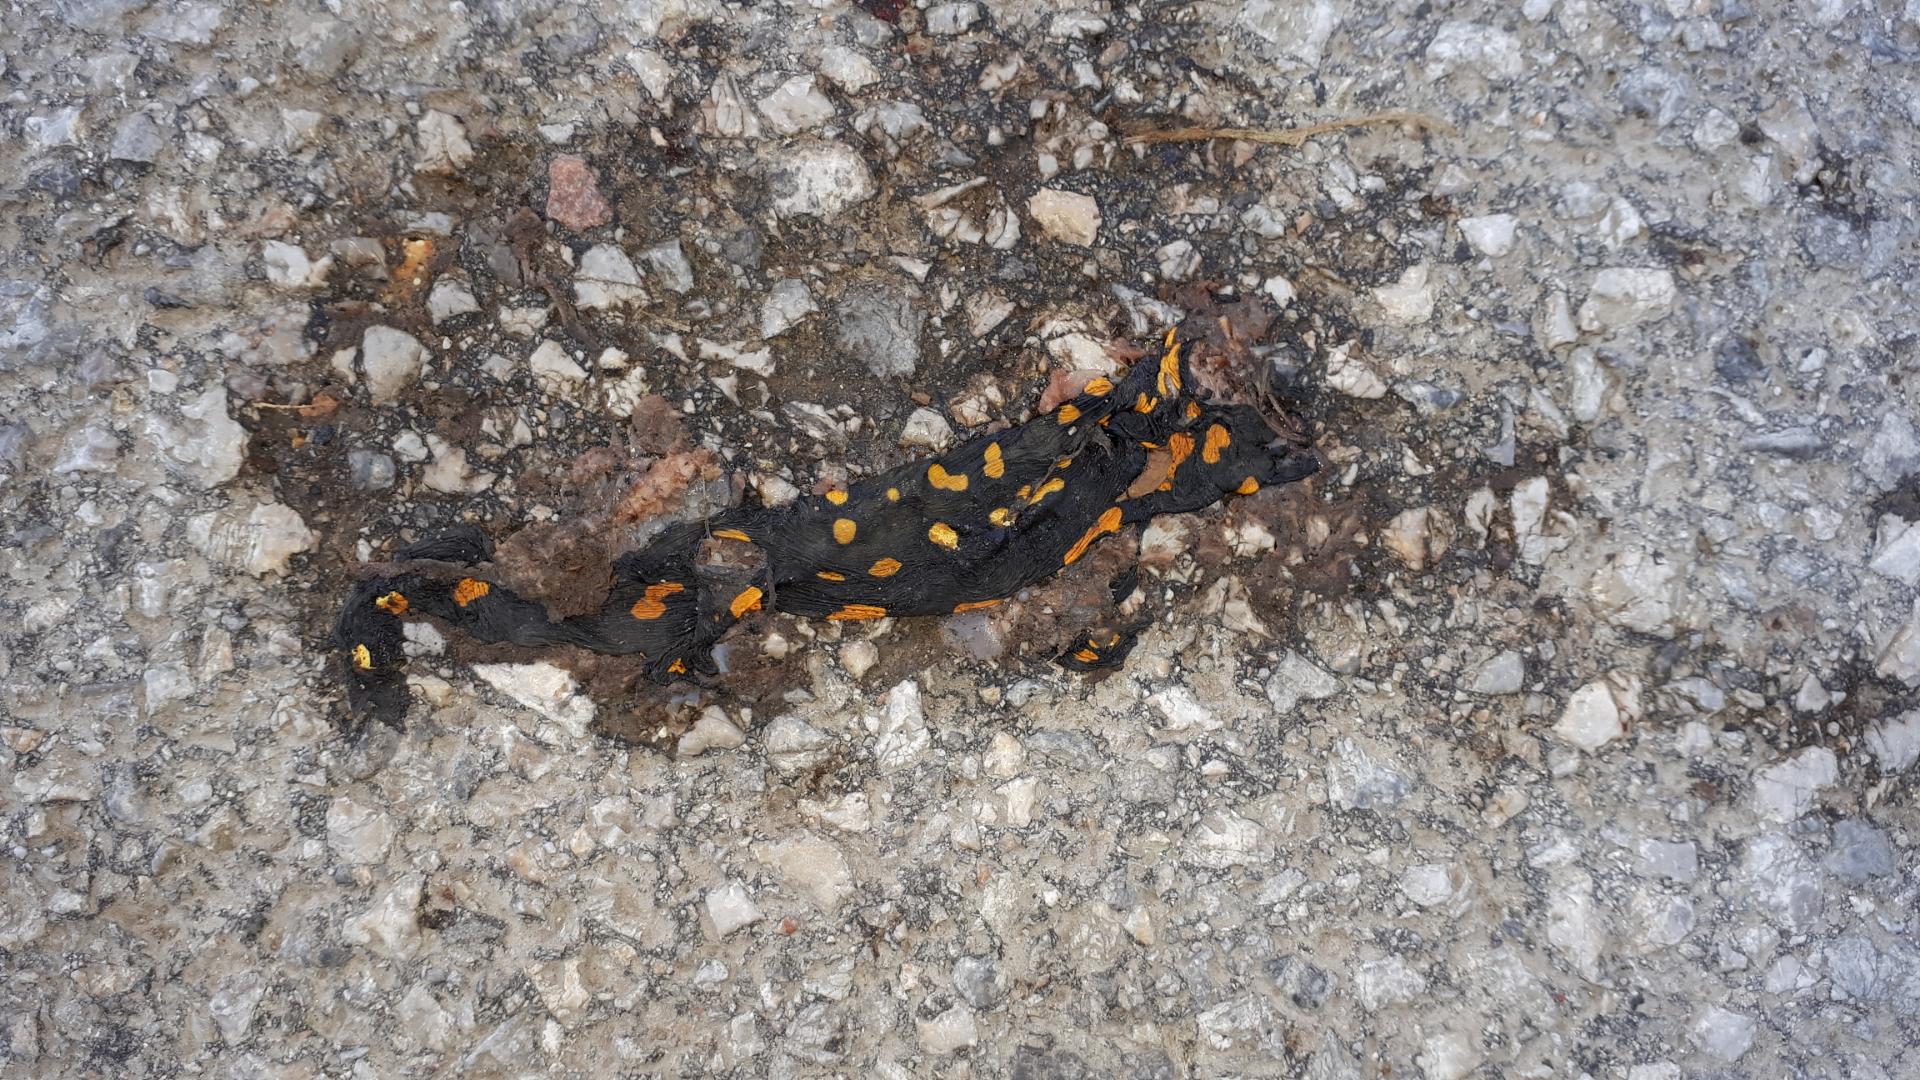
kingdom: Animalia
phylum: Chordata
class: Amphibia
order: Caudata
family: Salamandridae
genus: Salamandra
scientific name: Salamandra salamandra
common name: Fire salamander
